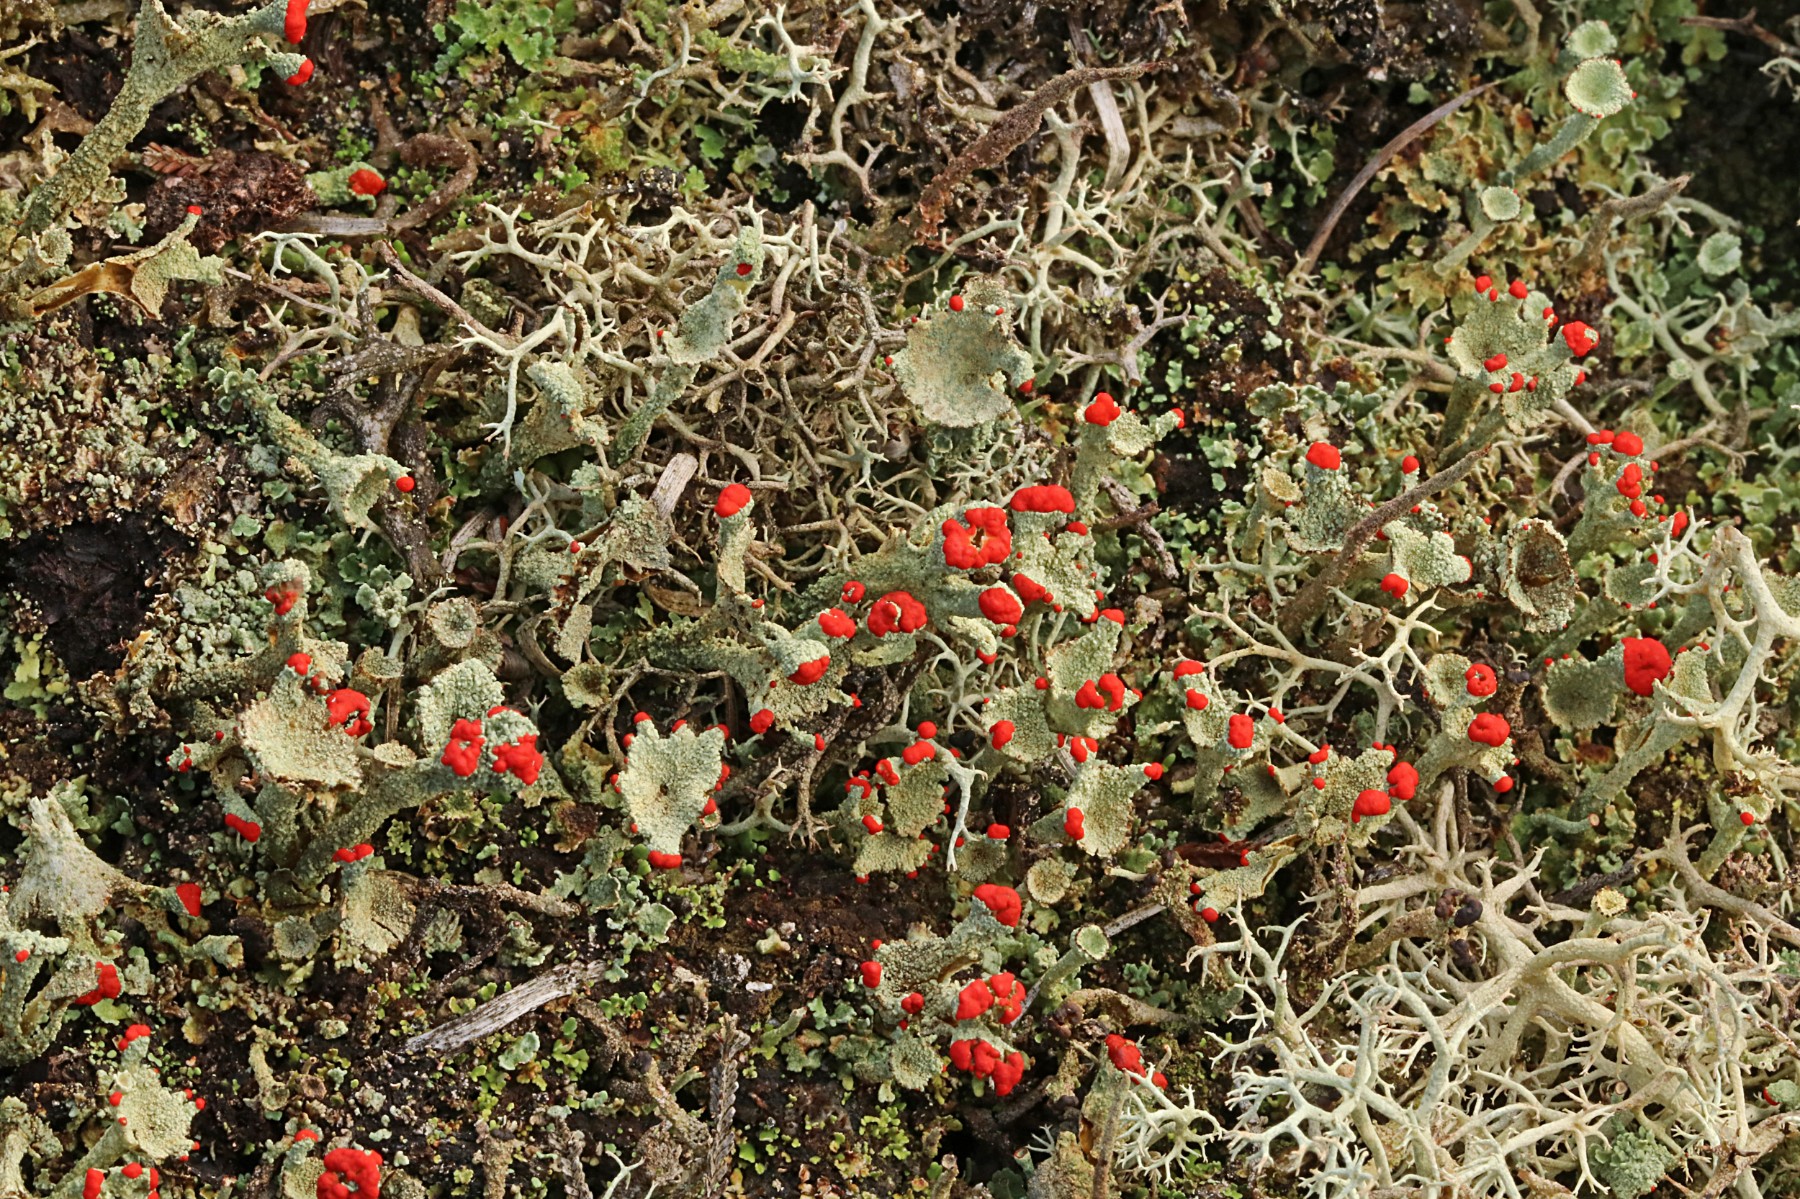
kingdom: Fungi
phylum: Ascomycota
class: Lecanoromycetes
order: Lecanorales
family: Cladoniaceae
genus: Cladonia
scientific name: Cladonia diversa
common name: rød bægerlav
